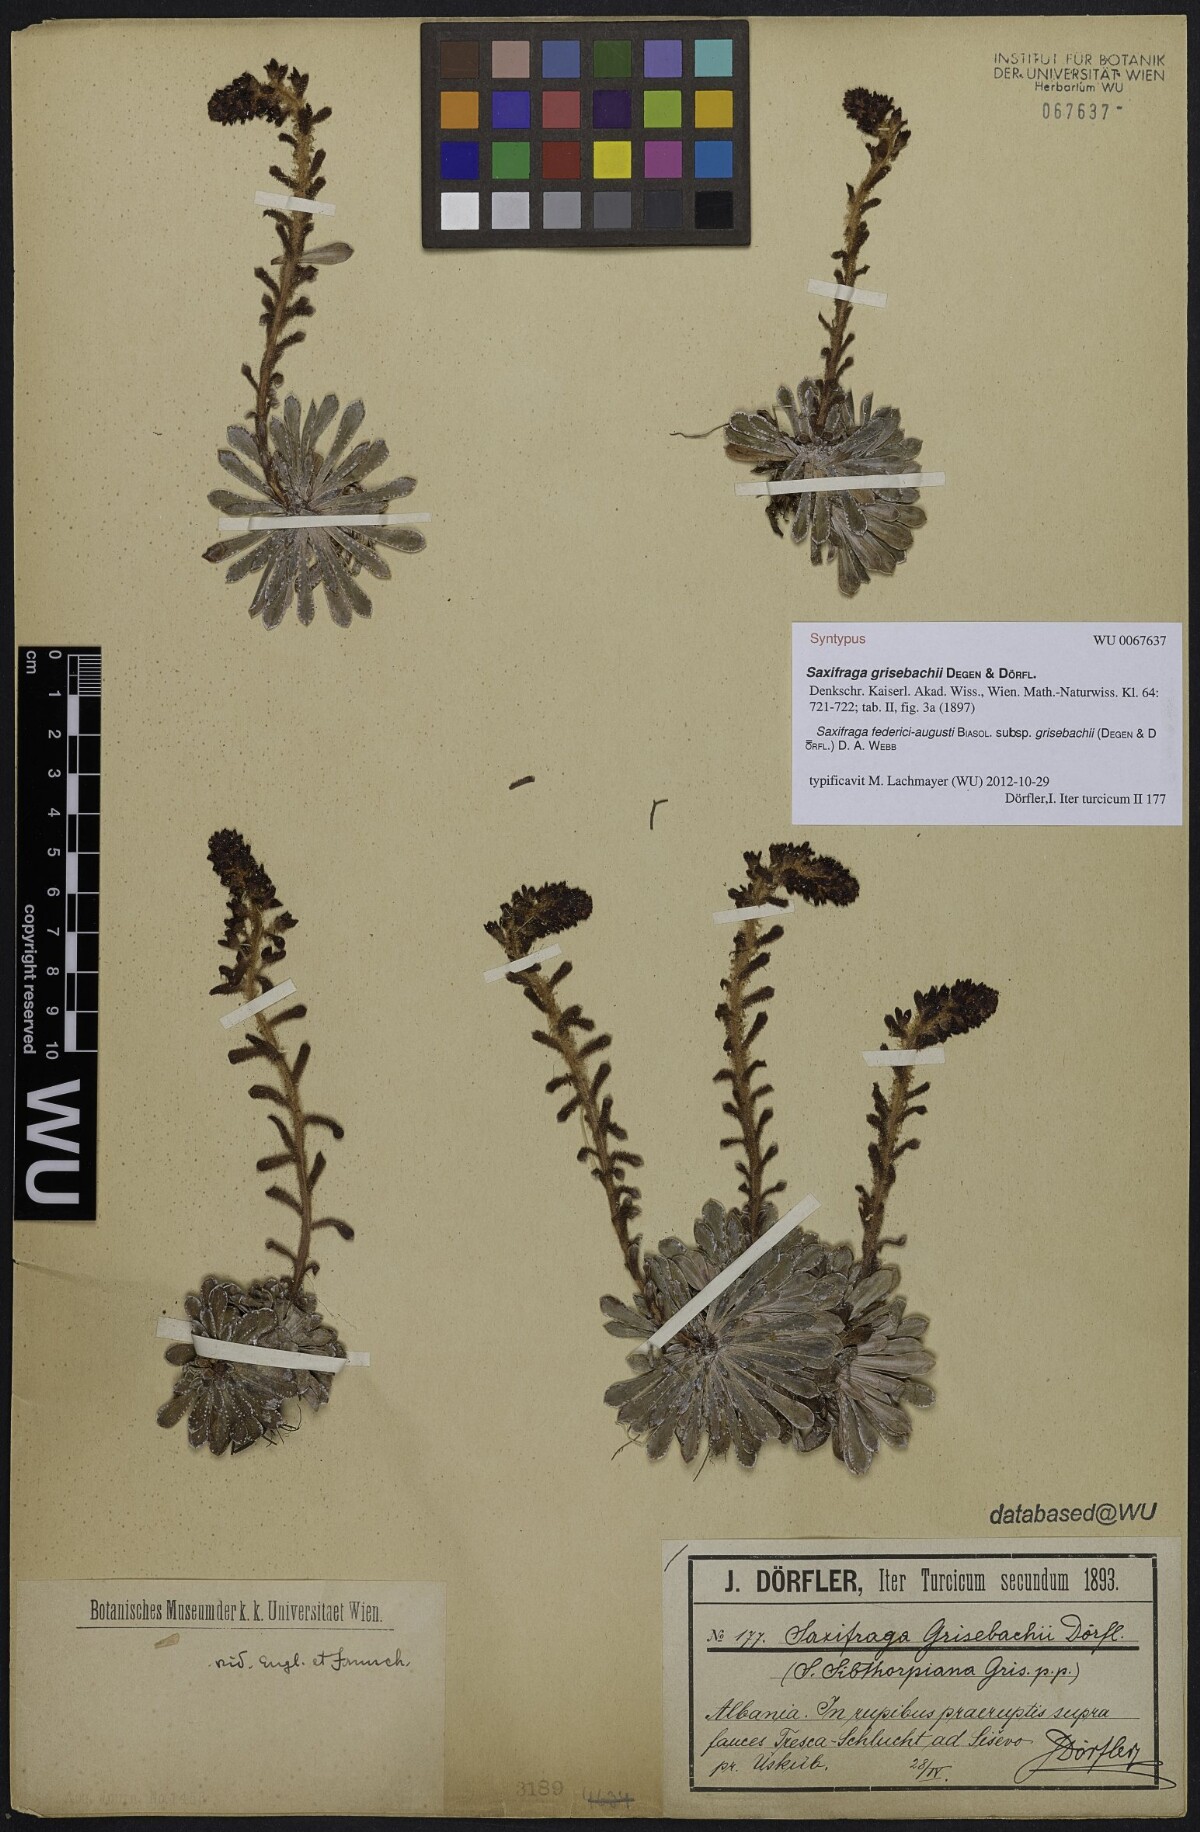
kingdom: Plantae
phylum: Tracheophyta
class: Magnoliopsida
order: Saxifragales
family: Saxifragaceae
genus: Saxifraga
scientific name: Saxifraga federici-augusti
